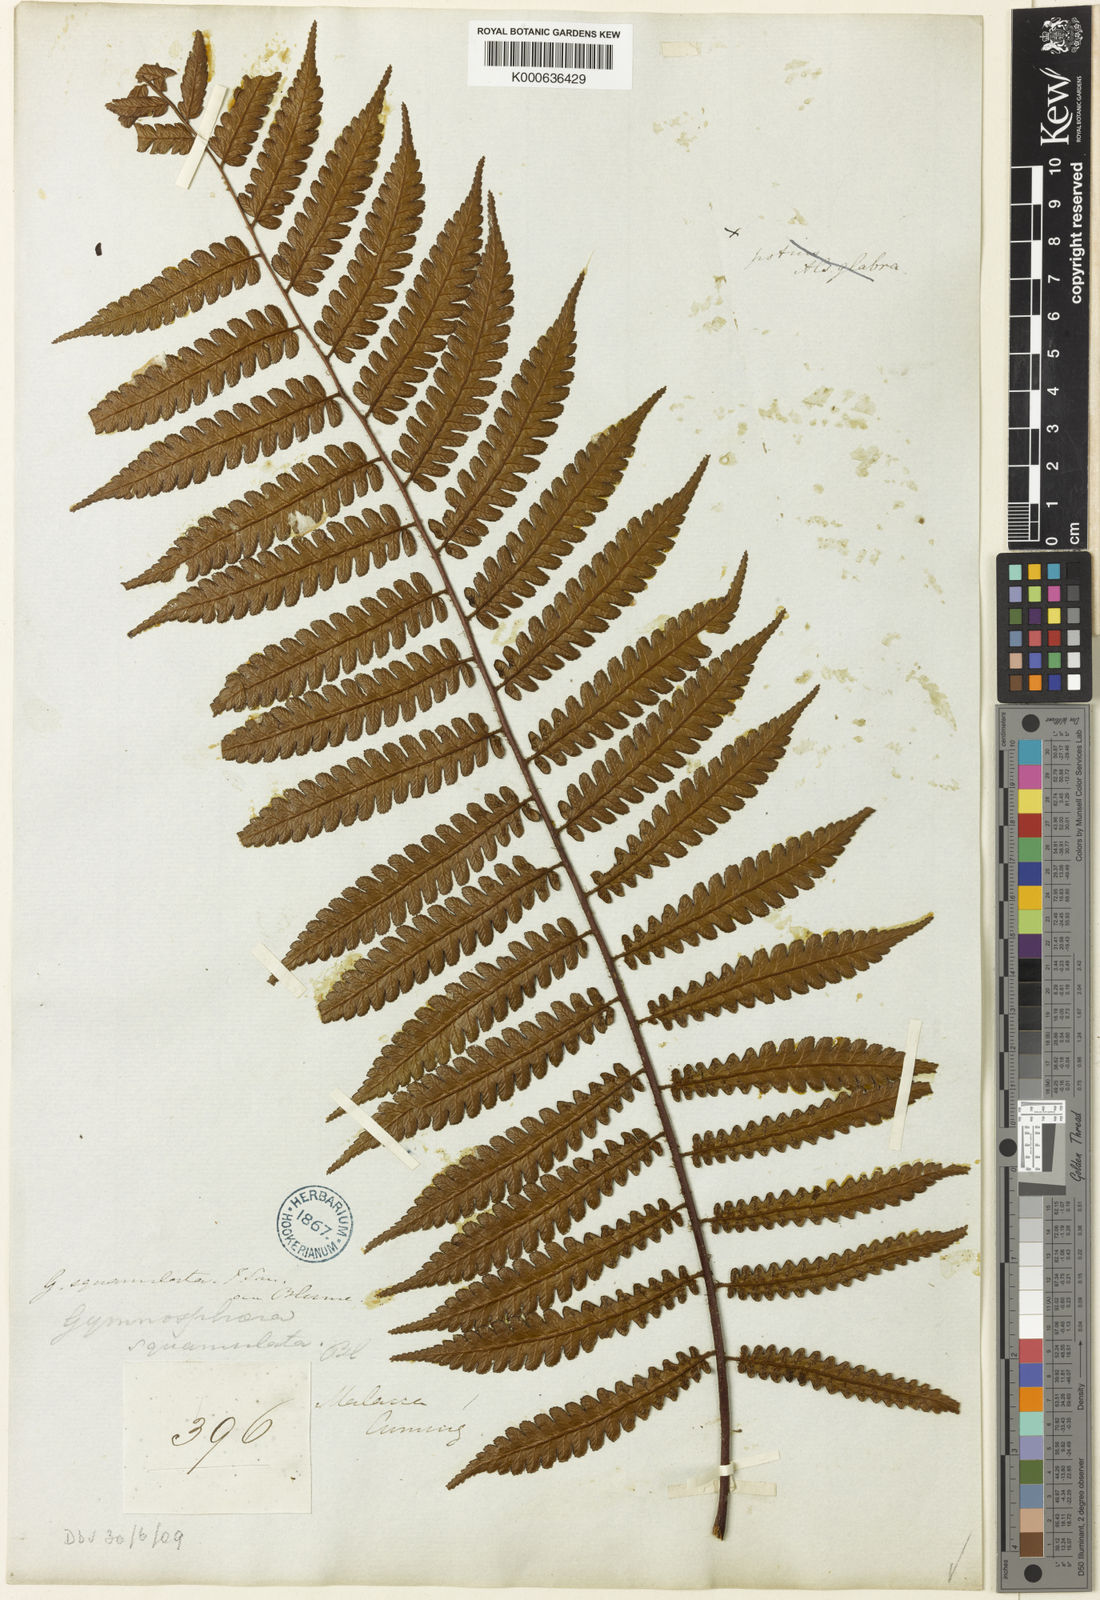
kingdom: Plantae
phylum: Tracheophyta
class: Polypodiopsida
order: Cyatheales
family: Cyatheaceae
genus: Gymnosphaera
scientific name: Gymnosphaera commutata
